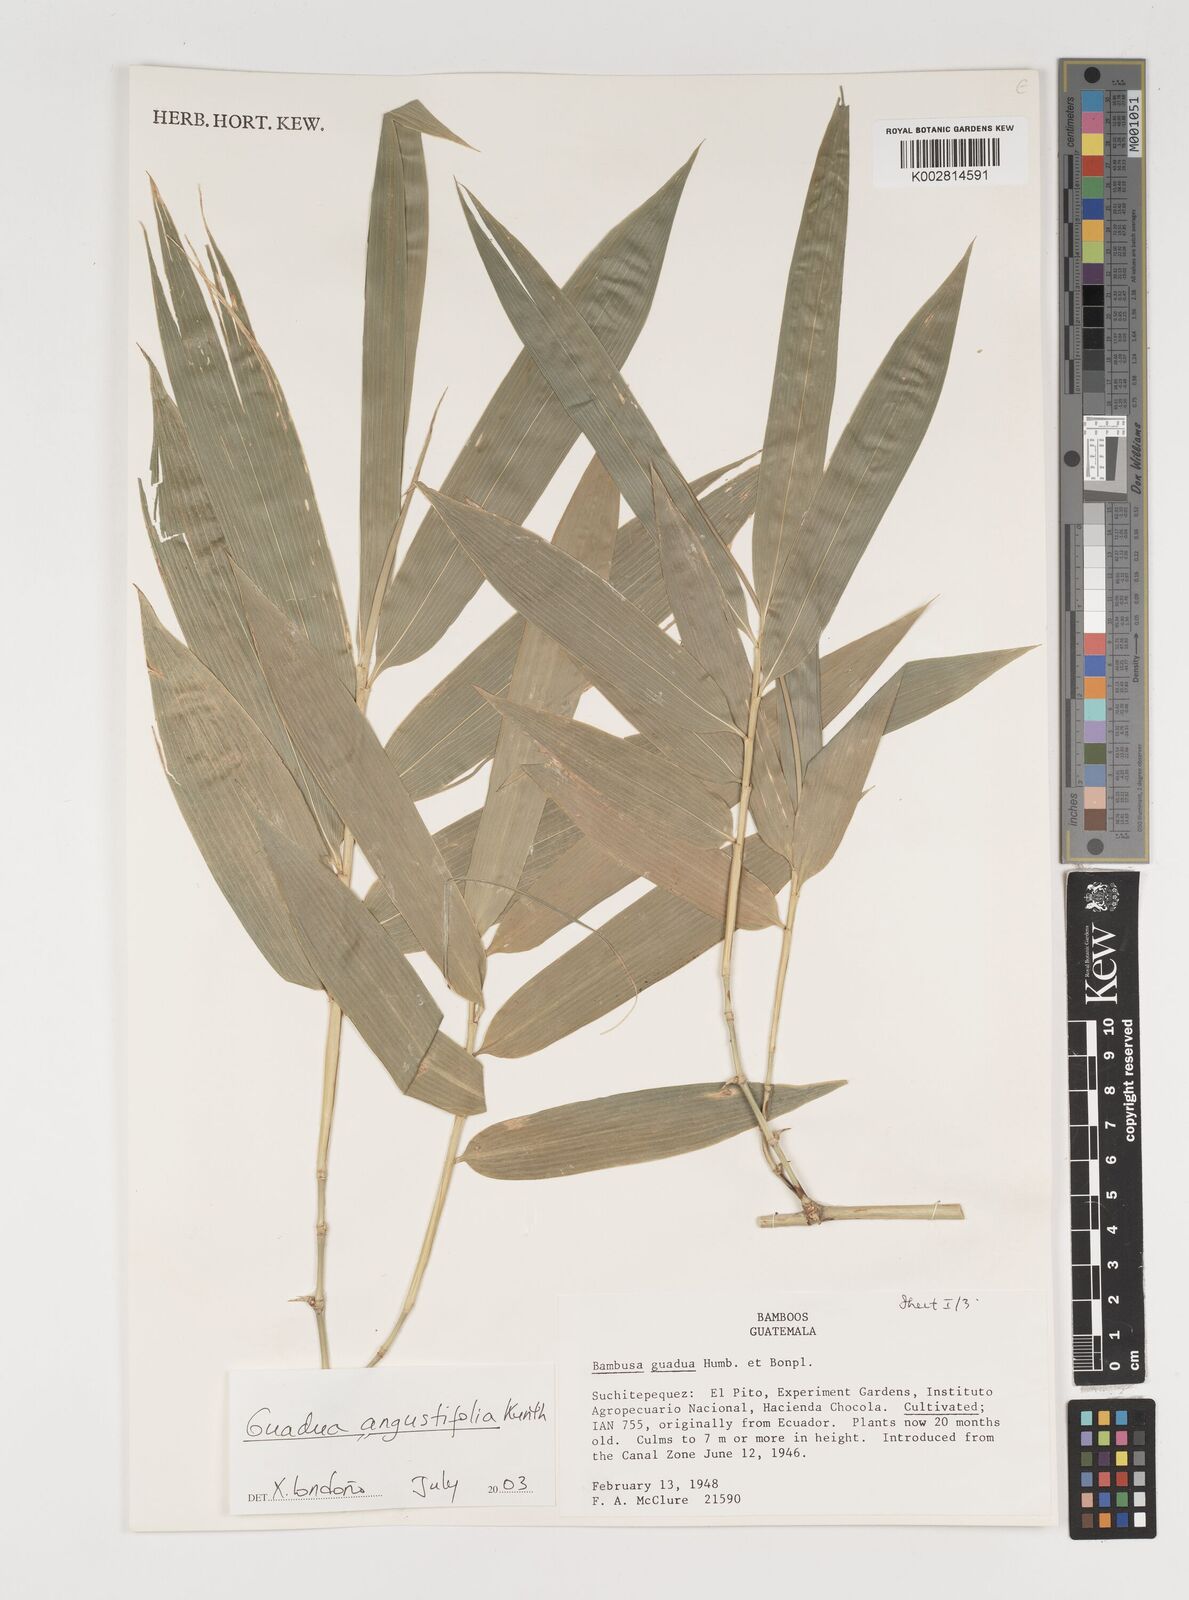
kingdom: Plantae
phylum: Tracheophyta
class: Liliopsida
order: Poales
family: Poaceae
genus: Guadua
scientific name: Guadua
